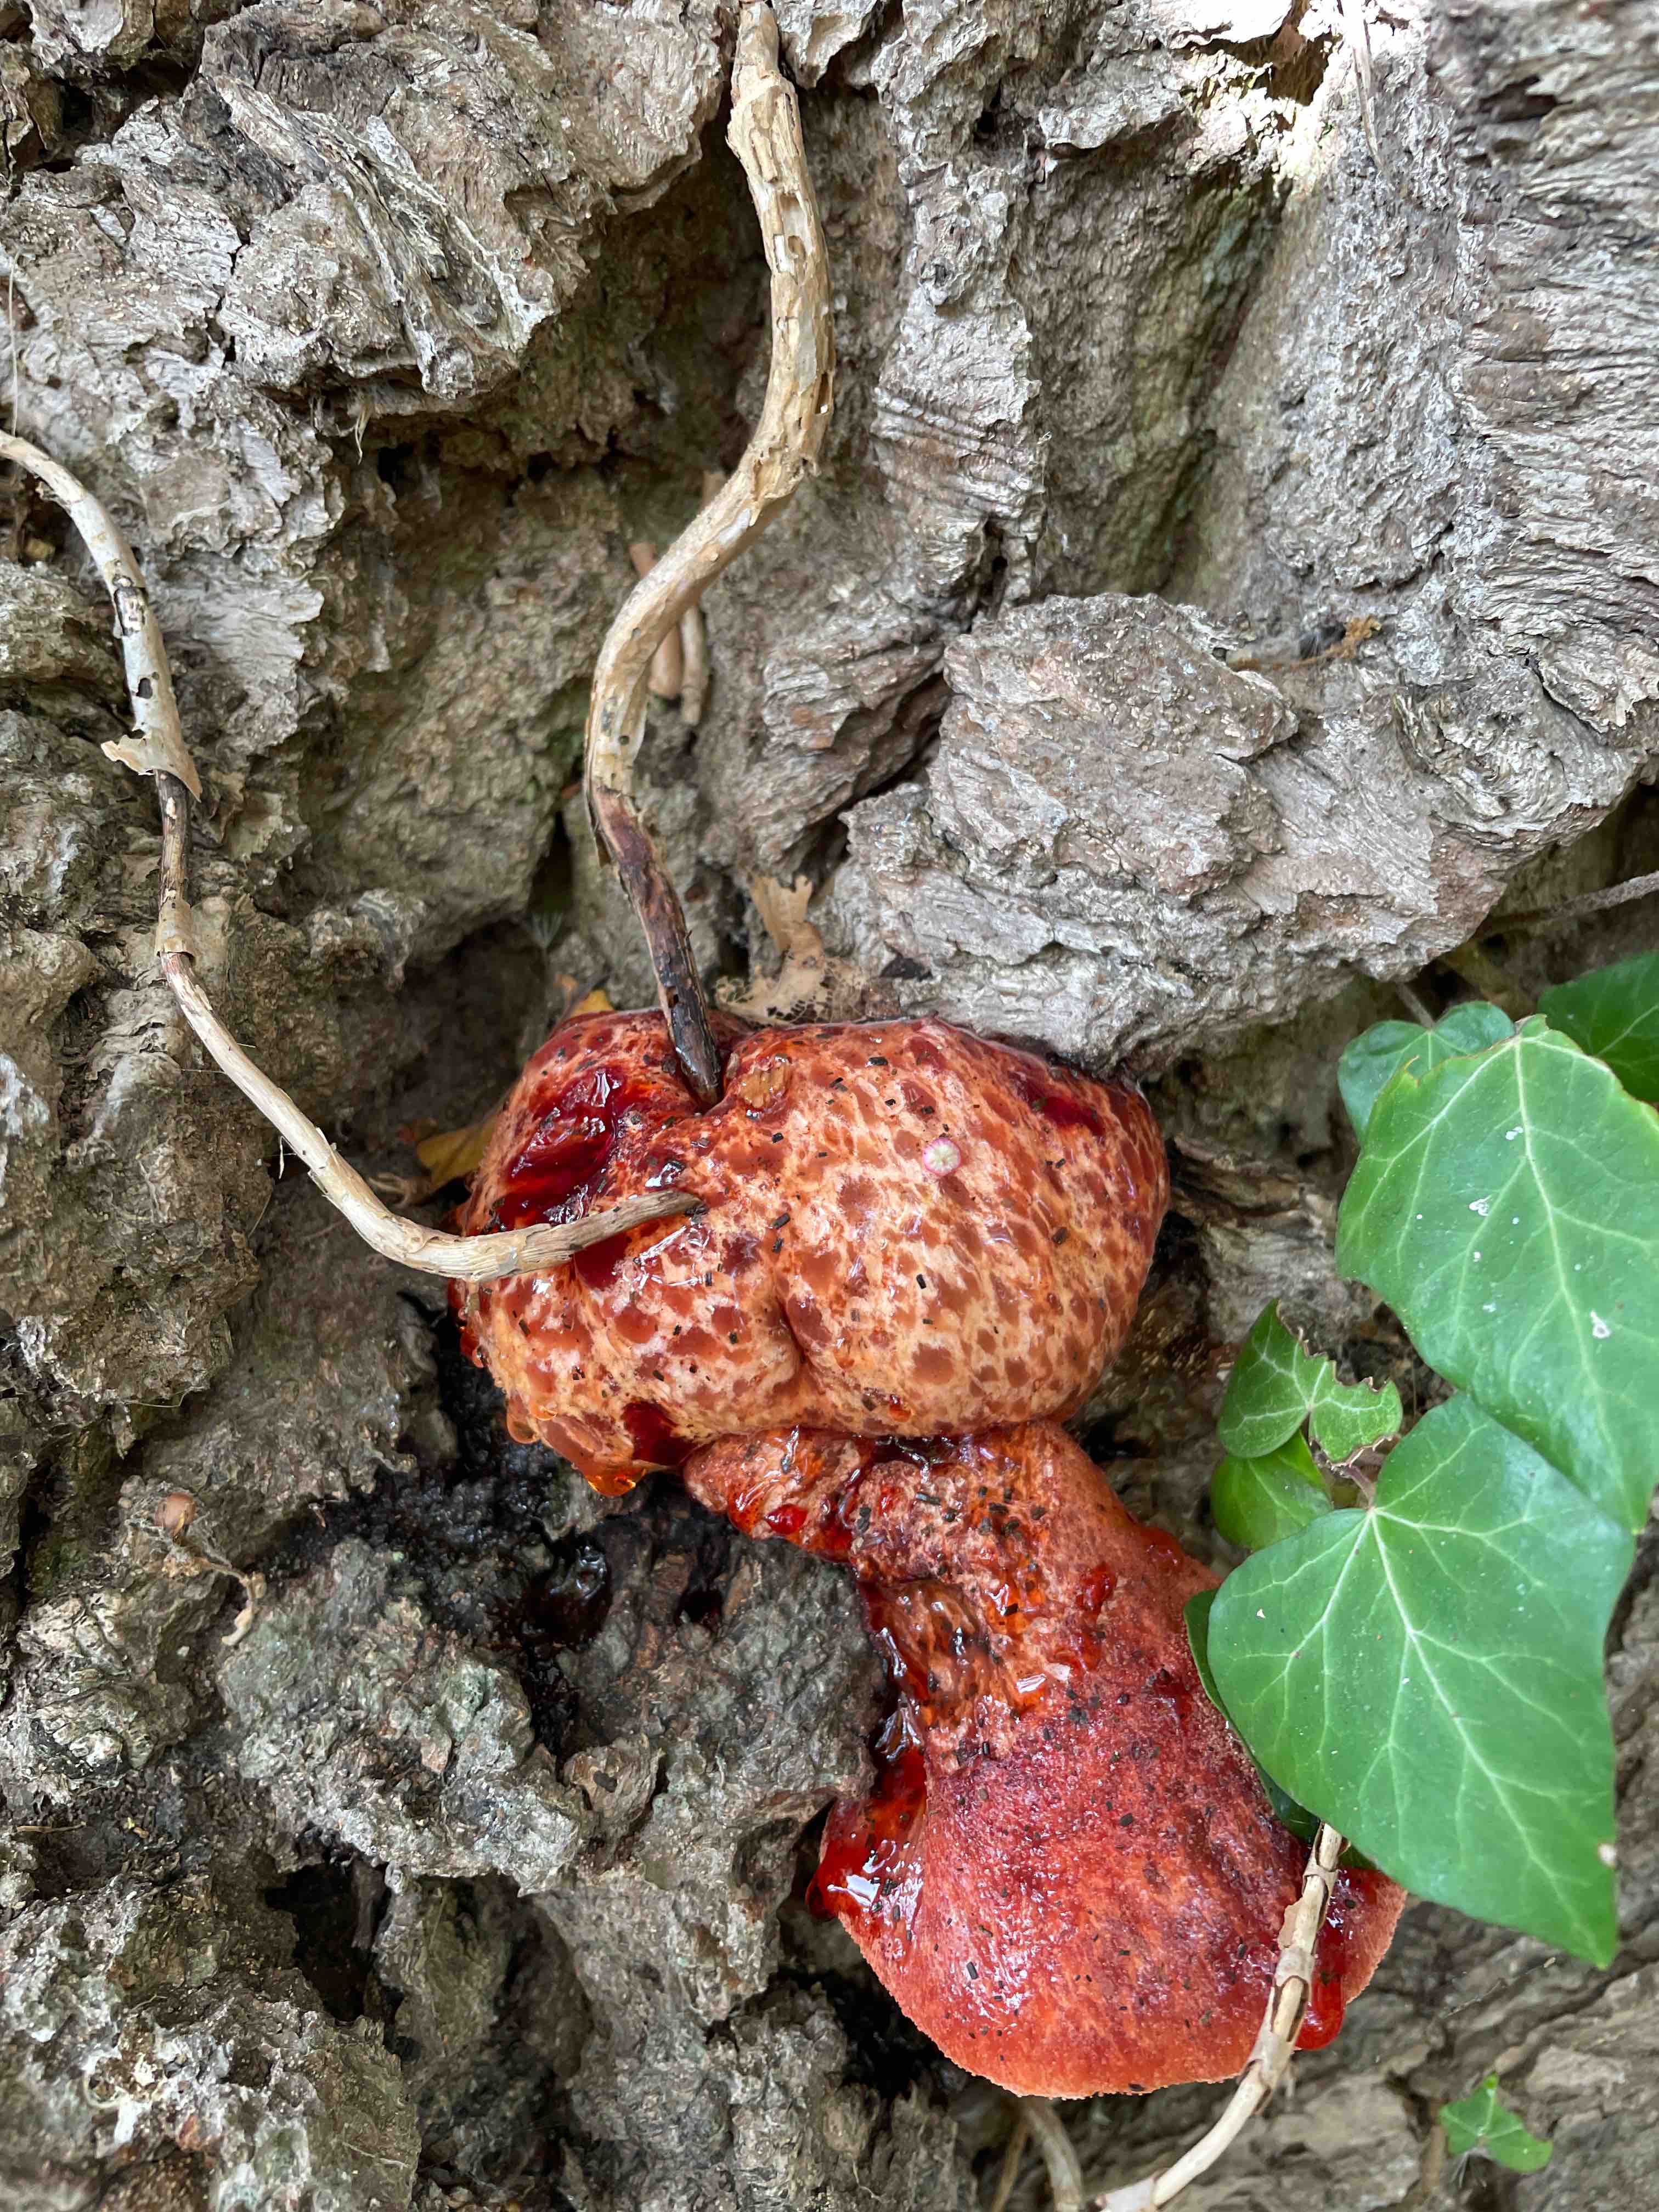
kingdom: Fungi
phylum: Basidiomycota
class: Agaricomycetes
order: Agaricales
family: Fistulinaceae
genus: Fistulina
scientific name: Fistulina hepatica
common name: oksetunge
